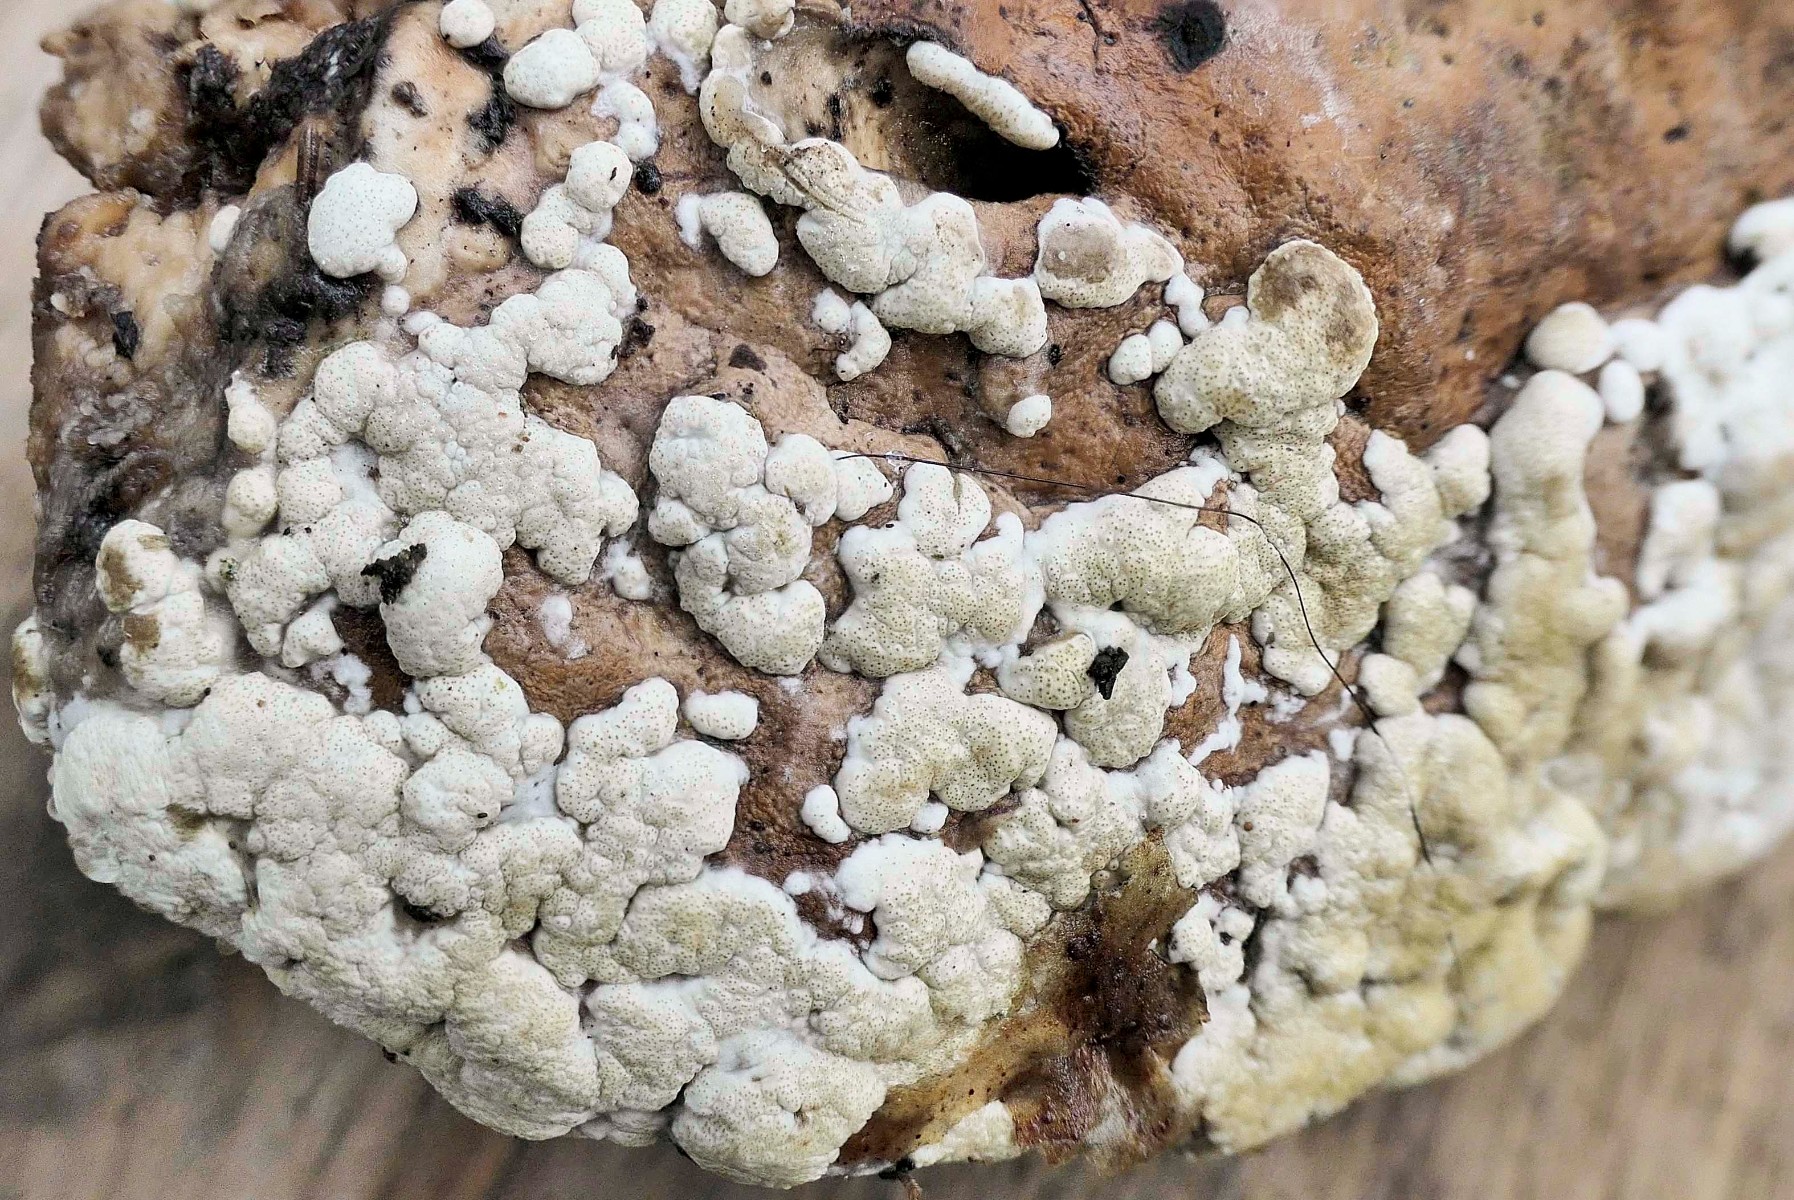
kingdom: Fungi
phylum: Ascomycota
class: Sordariomycetes
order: Hypocreales
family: Hypocreaceae
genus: Trichoderma
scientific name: Trichoderma pulvinatum
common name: snyltende kødkerne
